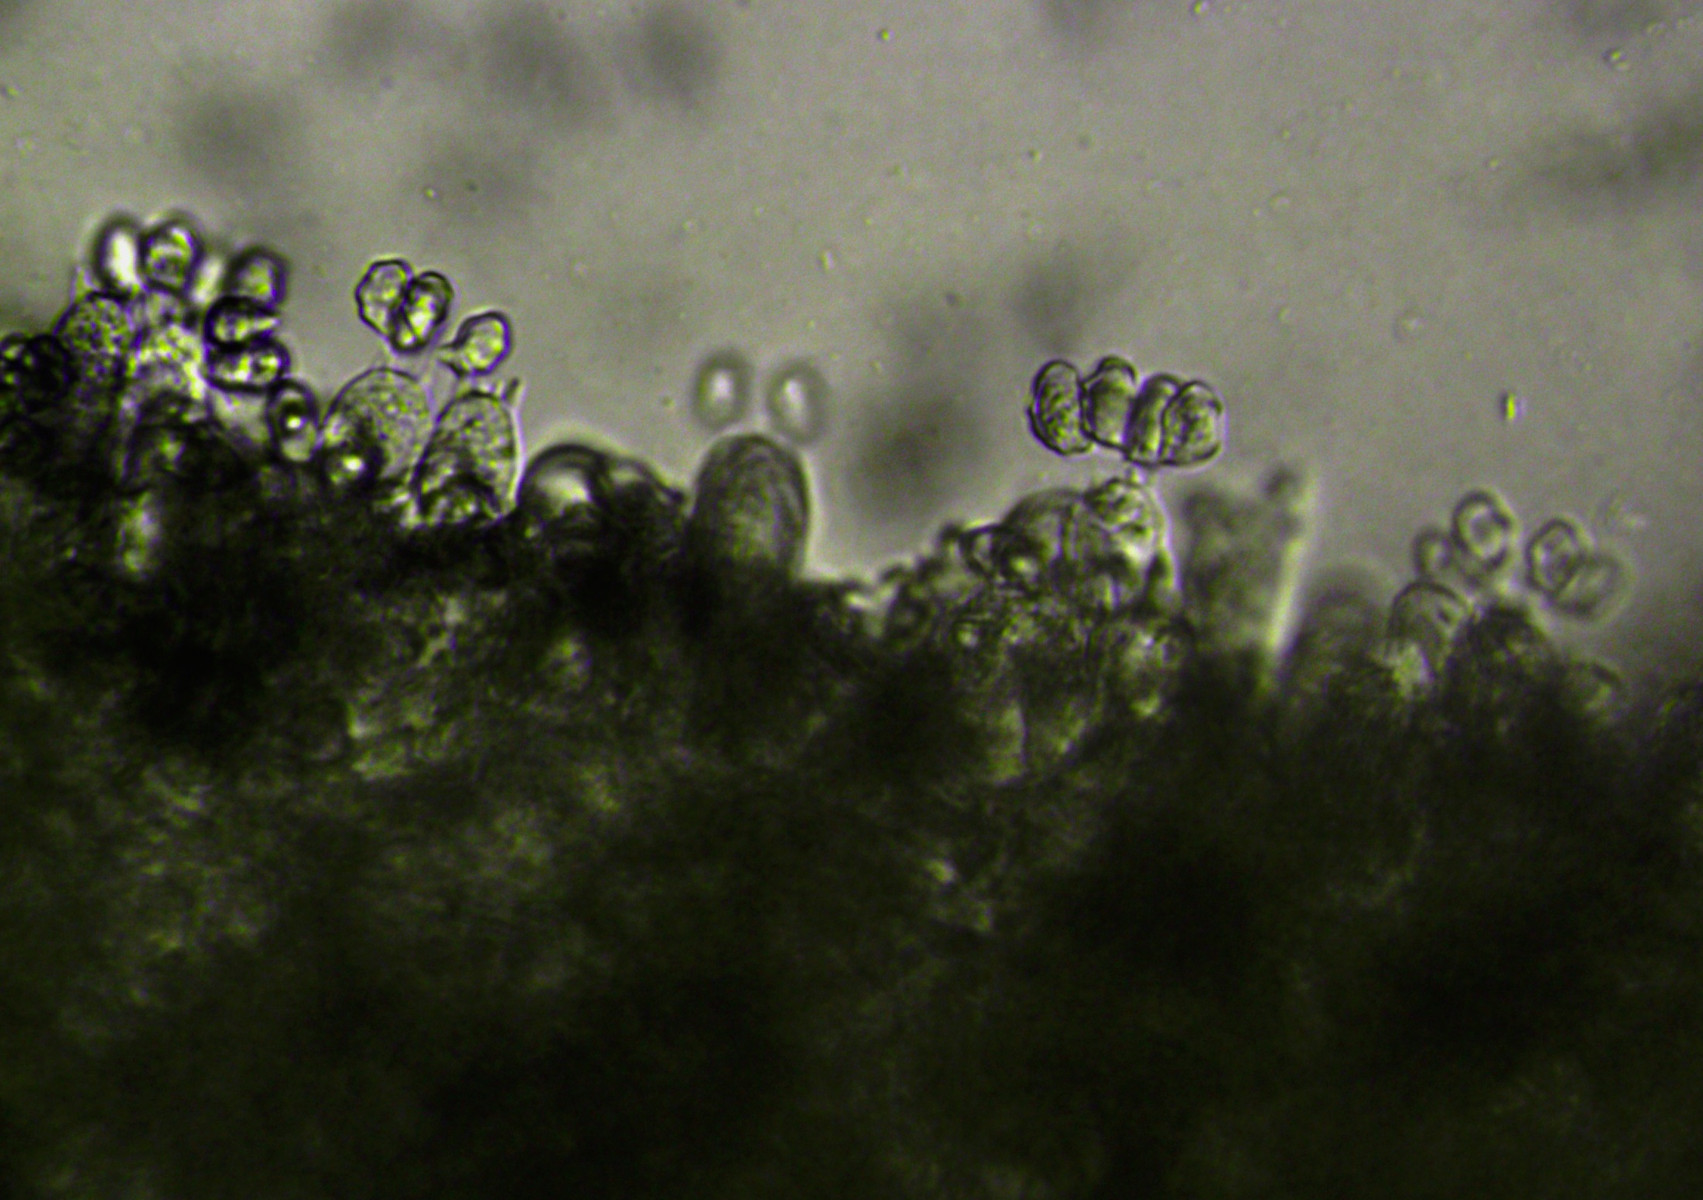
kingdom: Fungi
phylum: Basidiomycota
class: Agaricomycetes
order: Agaricales
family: Entolomataceae
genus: Entoloma
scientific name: Entoloma
